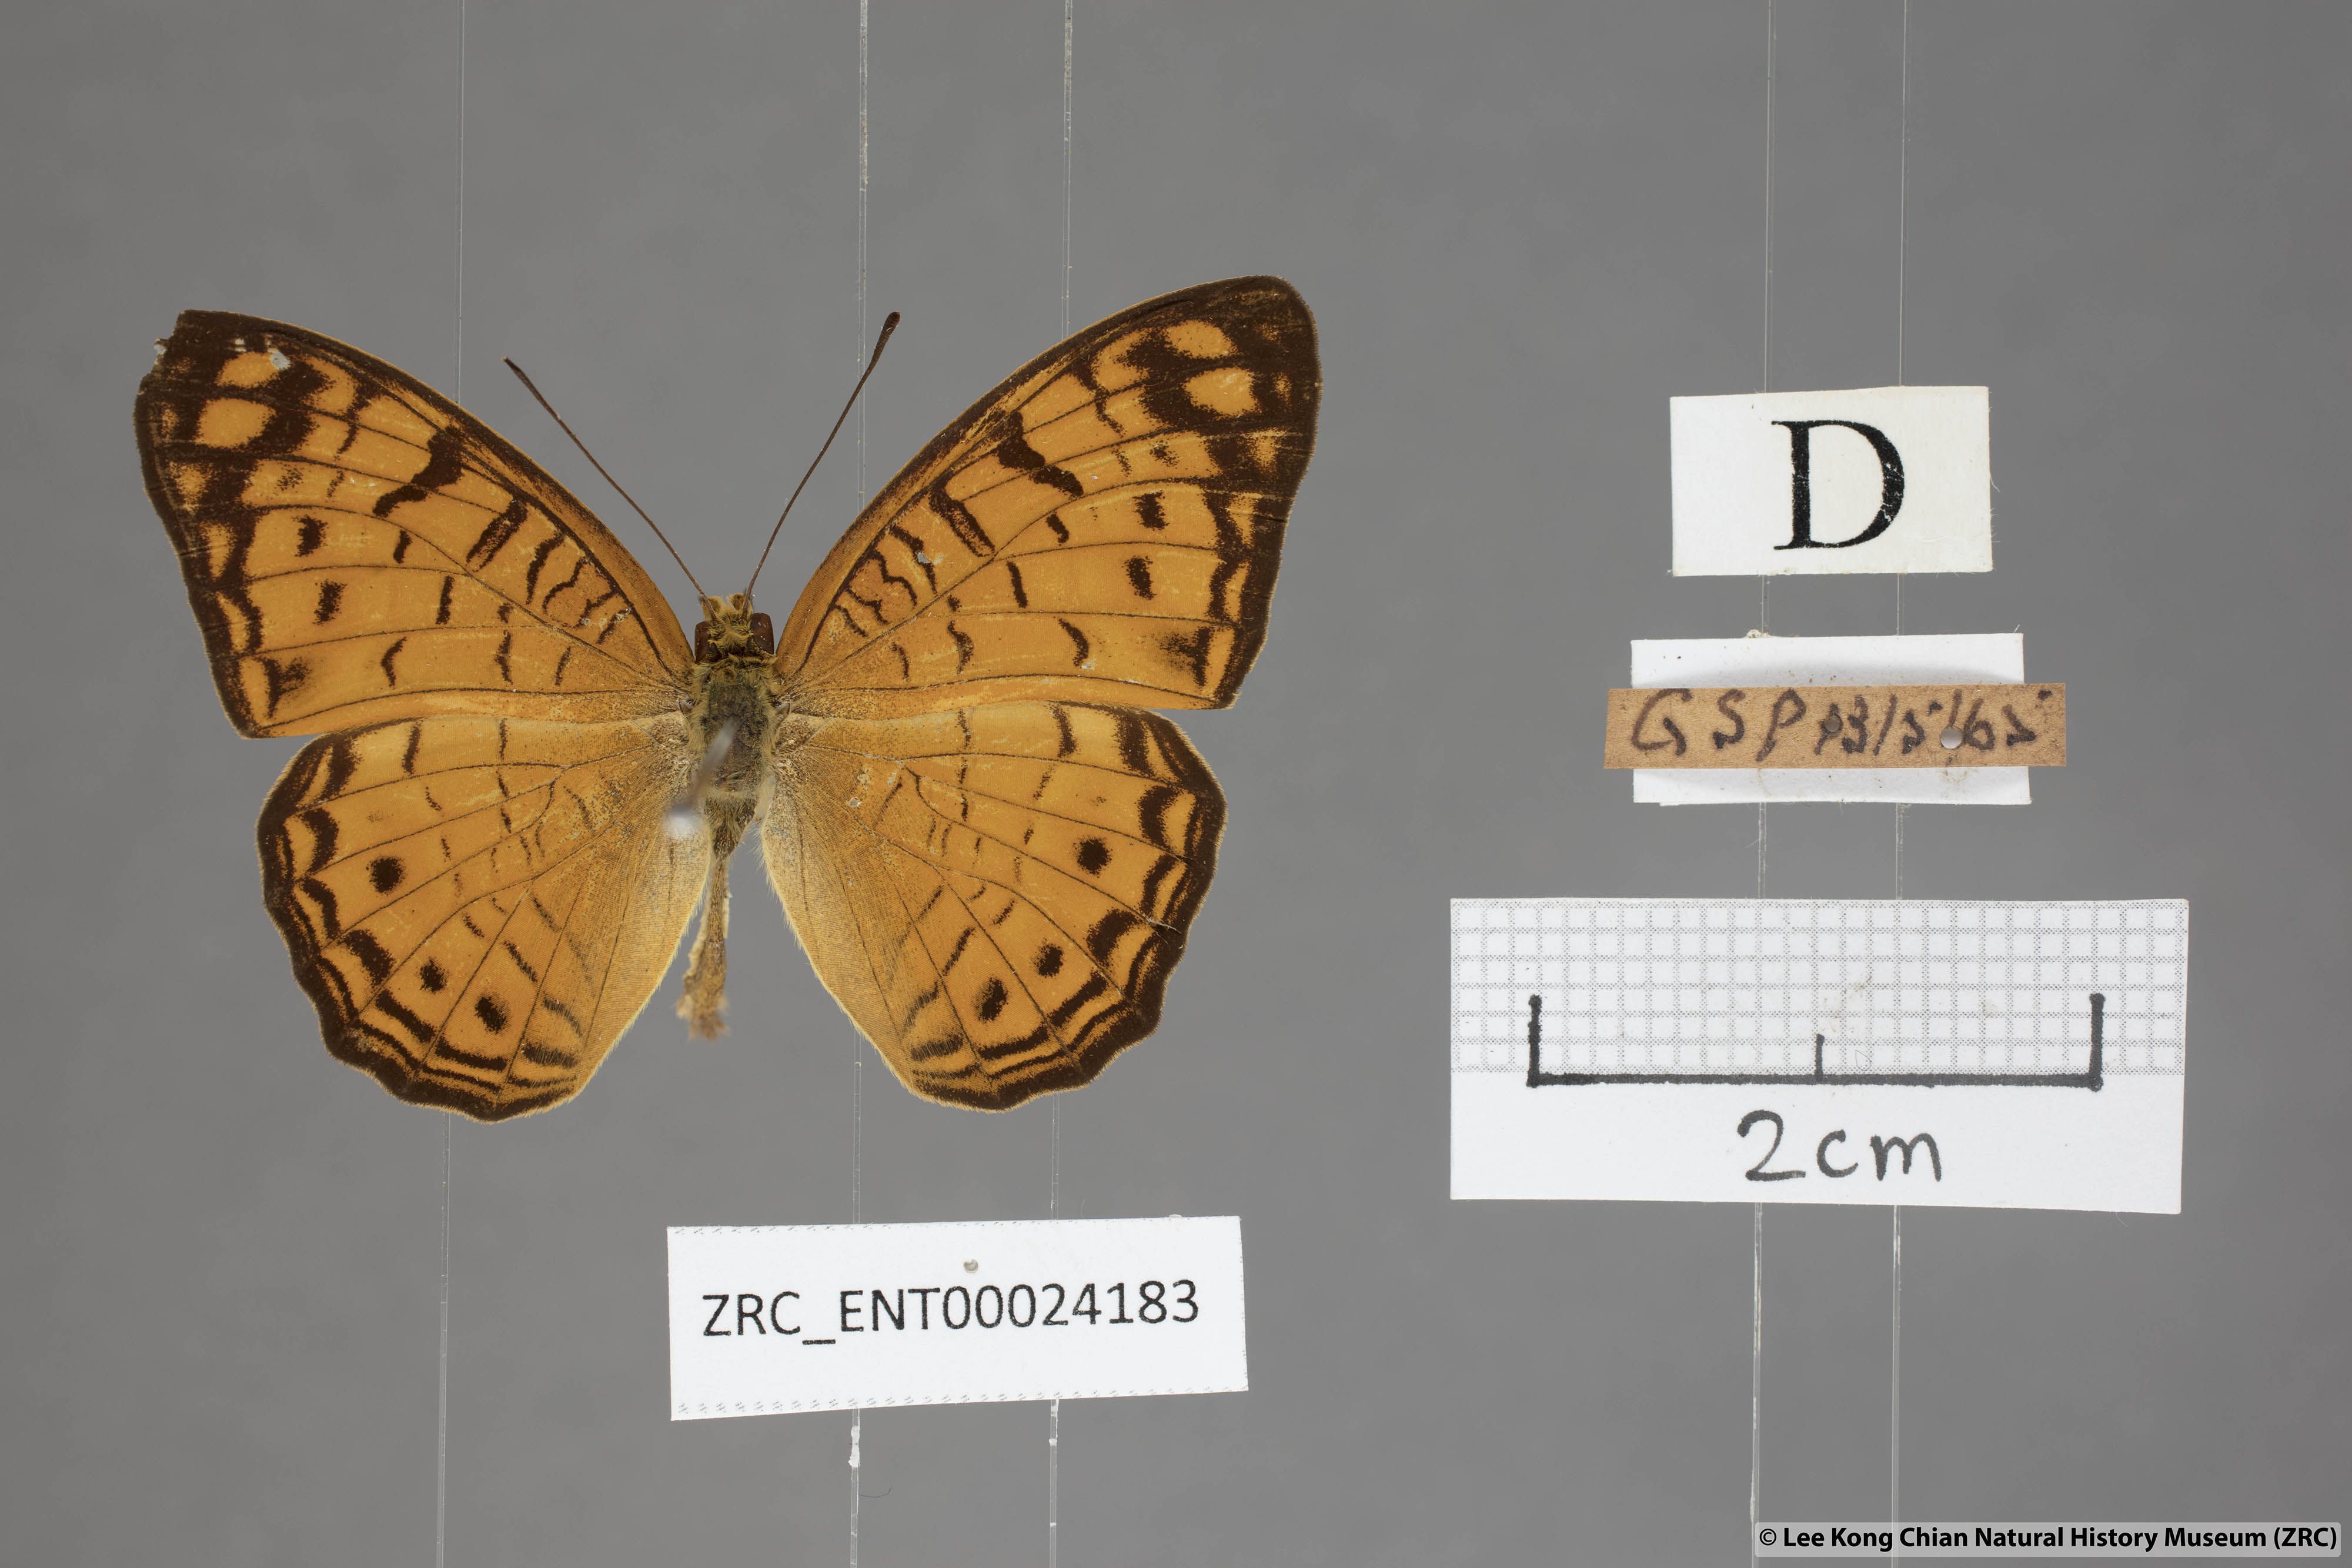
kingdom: Animalia
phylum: Arthropoda
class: Insecta
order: Lepidoptera
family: Nymphalidae
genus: Phalanta
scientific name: Phalanta alcippe
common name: Small leopard
